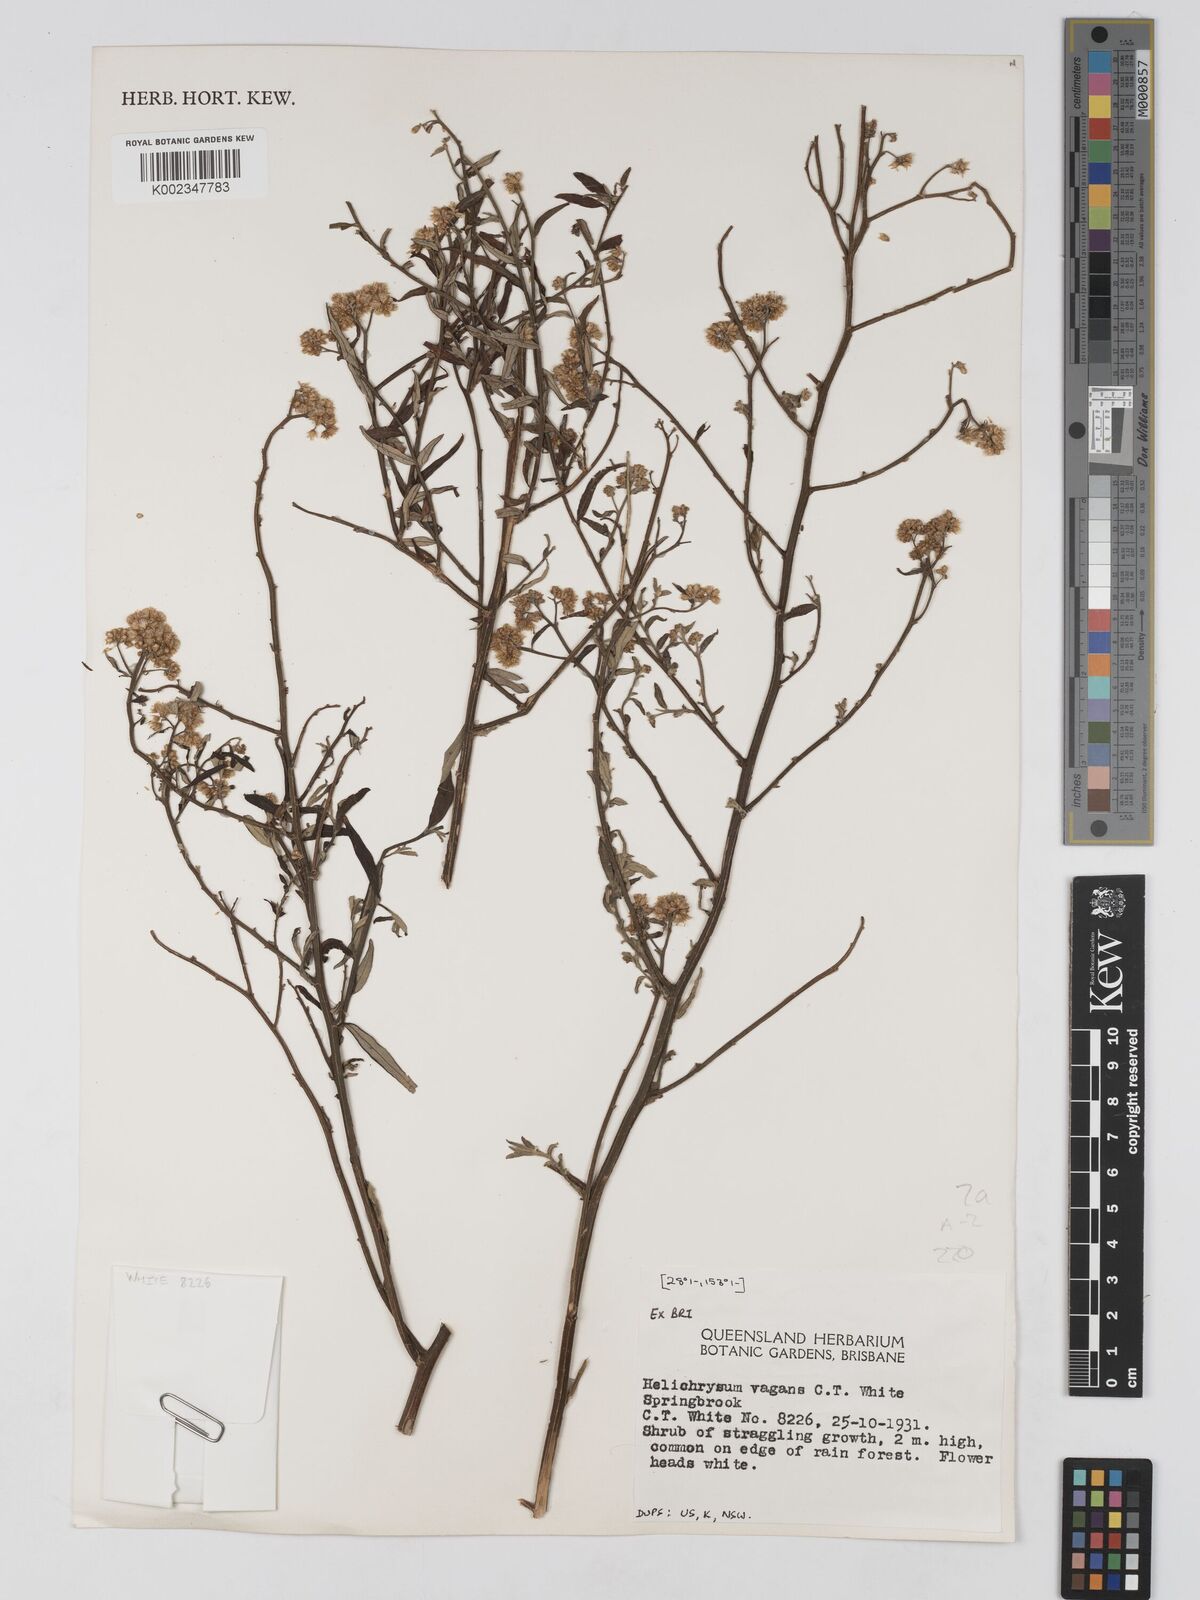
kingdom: Plantae
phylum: Tracheophyta
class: Magnoliopsida
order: Asterales
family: Asteraceae
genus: Ozothamnus
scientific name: Ozothamnus vagans
